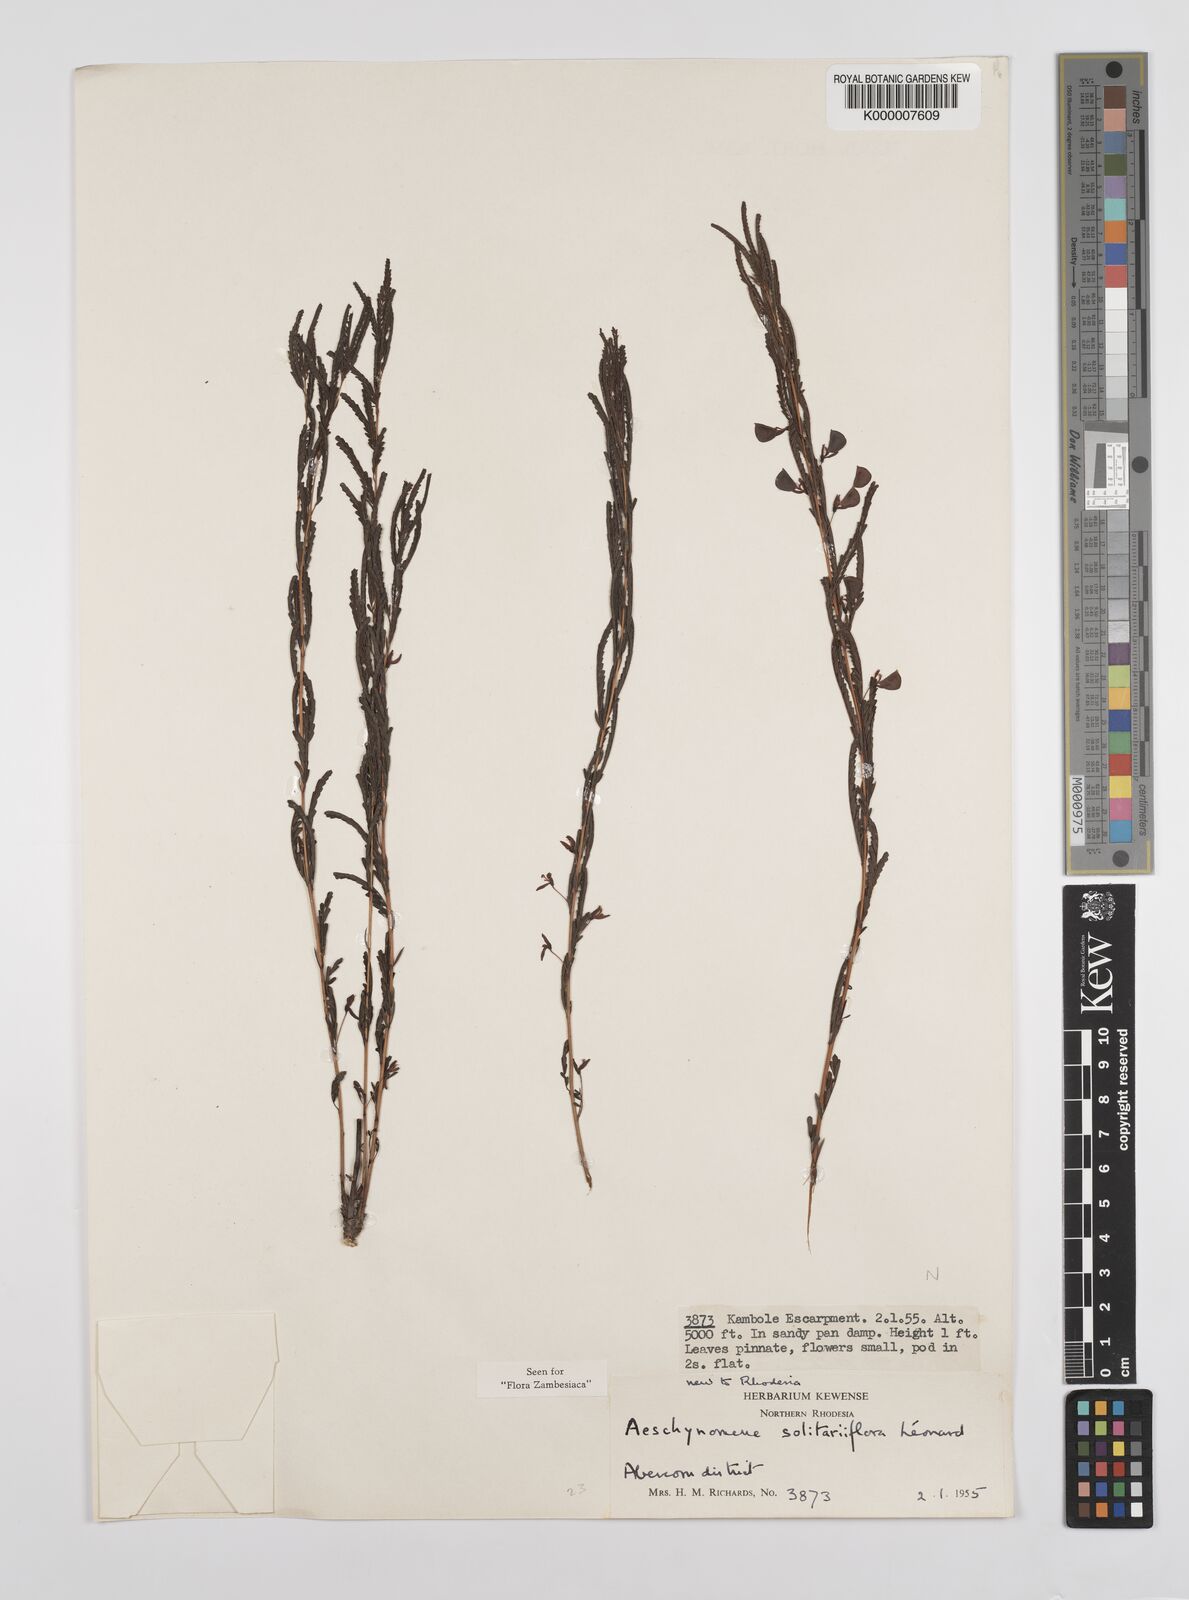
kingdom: Plantae
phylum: Tracheophyta
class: Magnoliopsida
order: Fabales
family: Fabaceae
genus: Aeschynomene
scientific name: Aeschynomene solitariiflora
